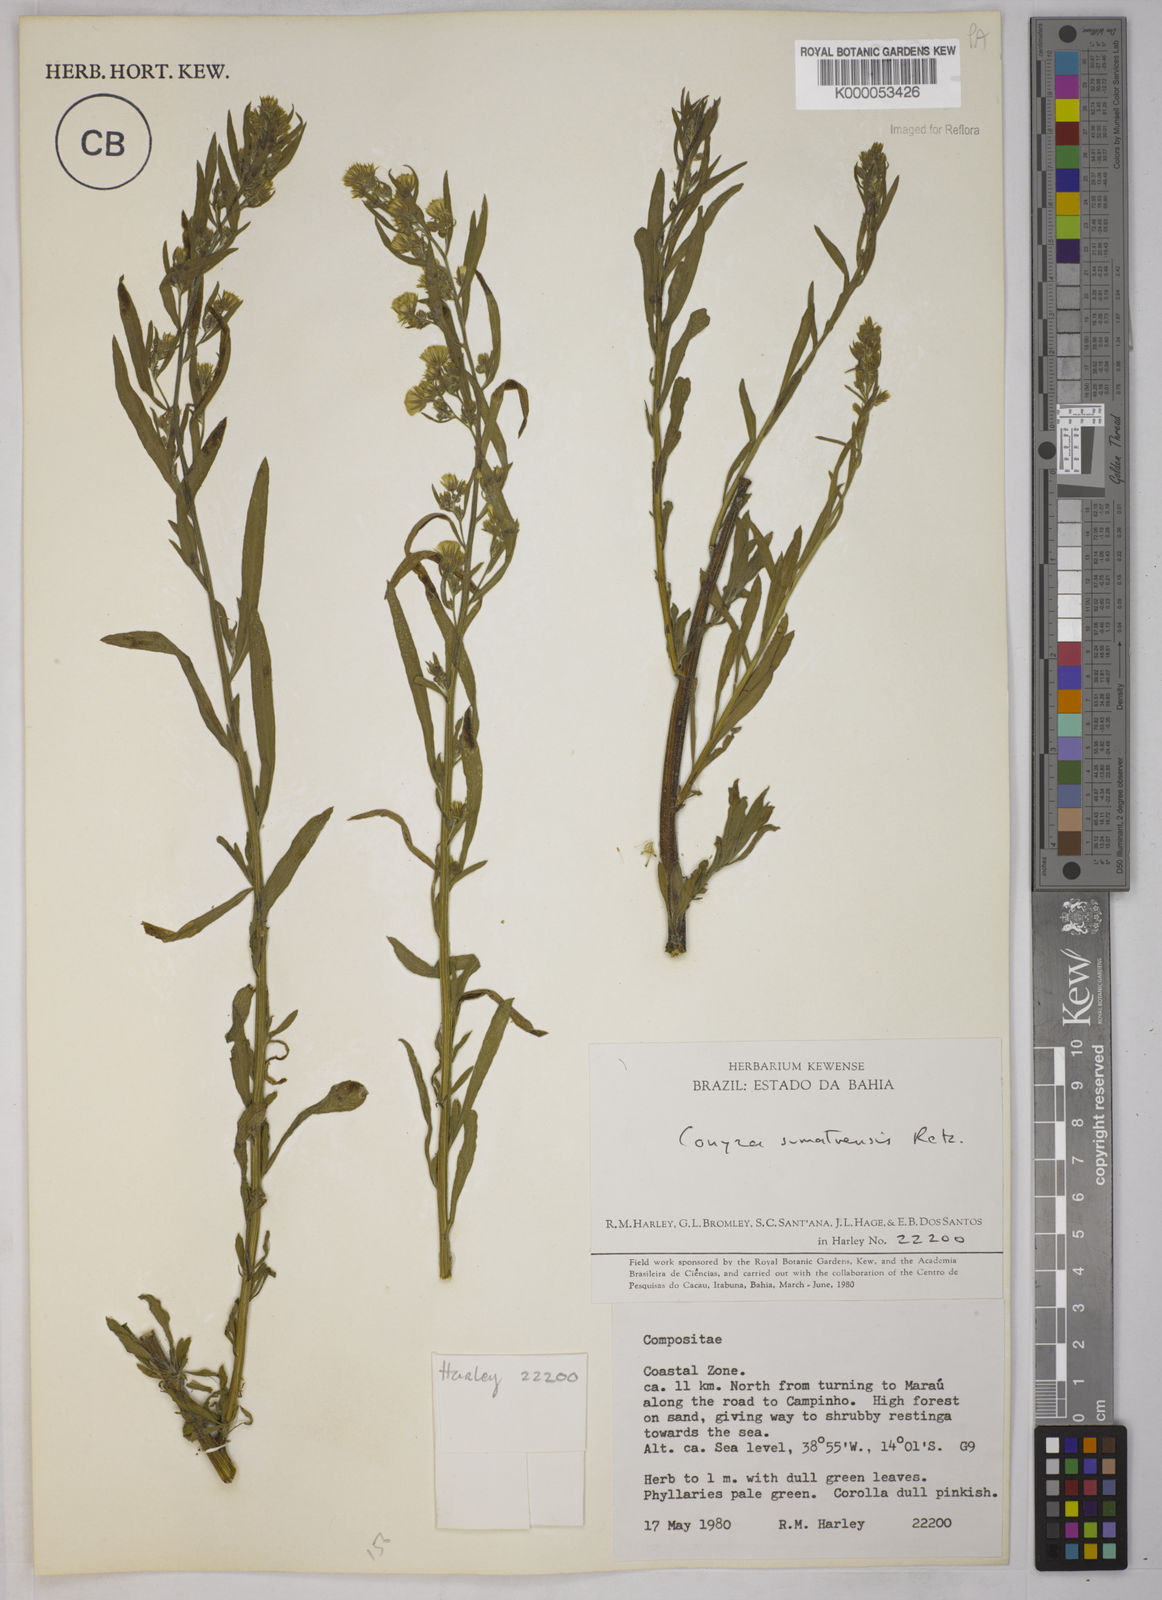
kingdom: Plantae
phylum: Tracheophyta
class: Magnoliopsida
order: Asterales
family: Asteraceae
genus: Erigeron
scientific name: Erigeron sumatrensis
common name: Daisy
